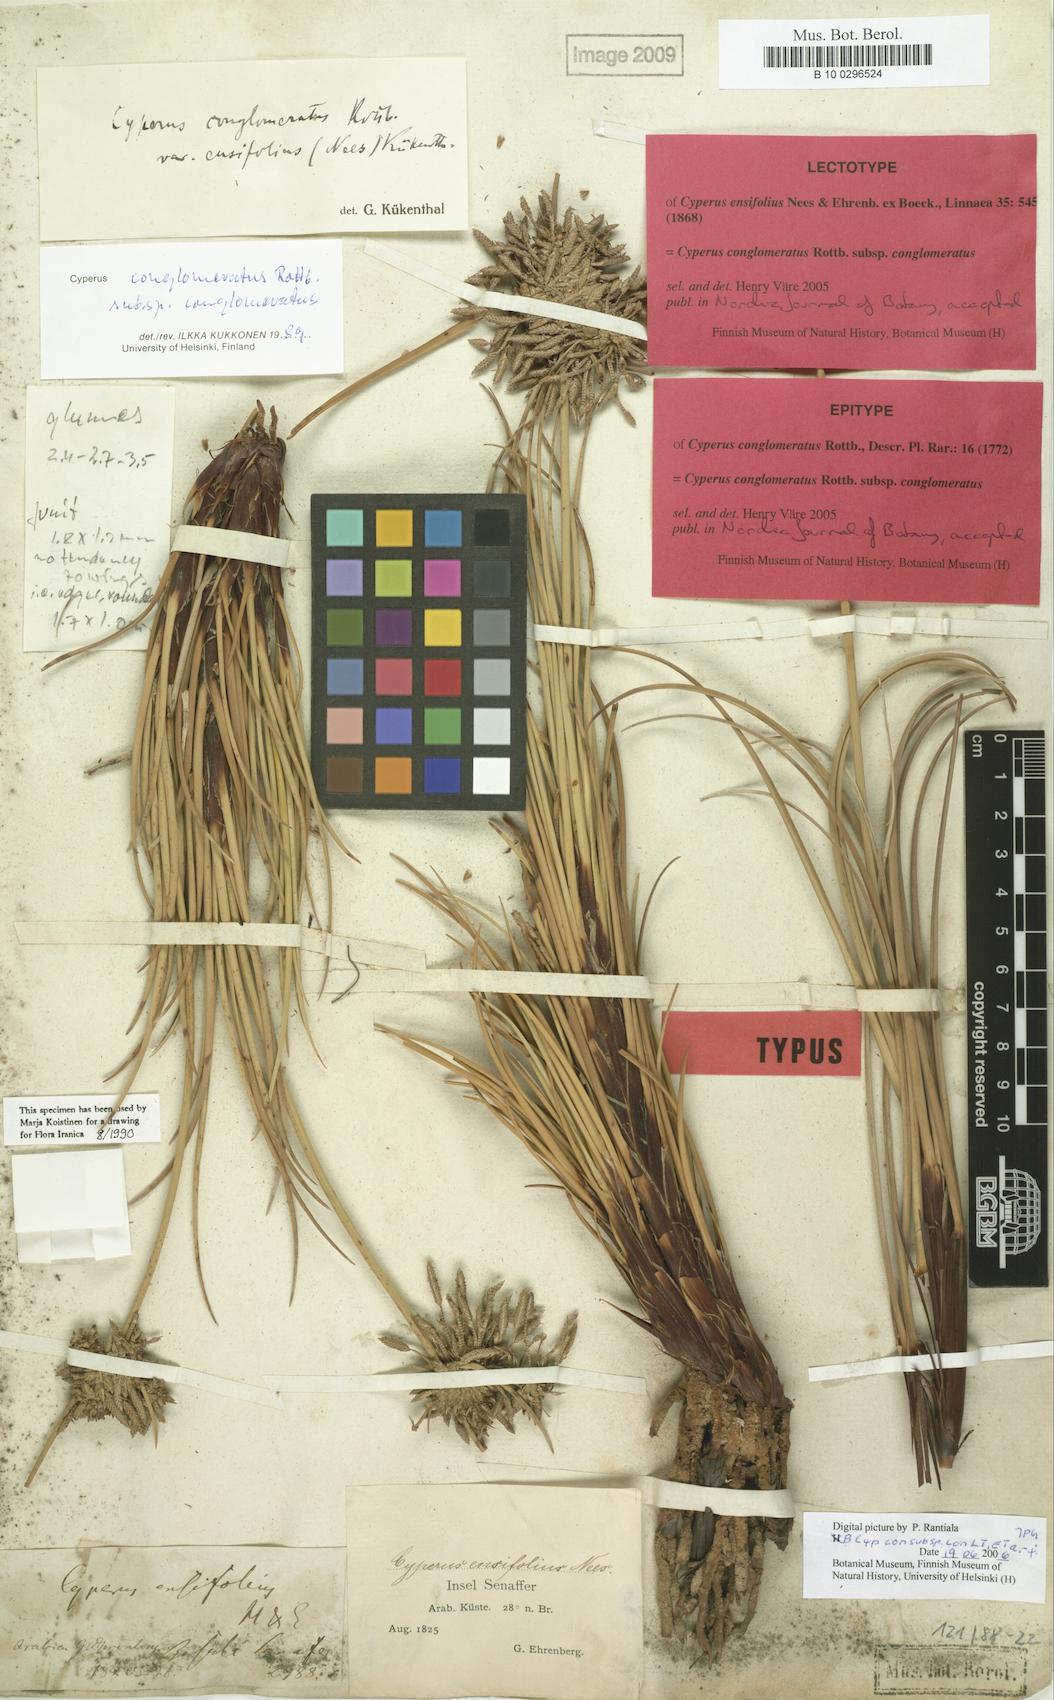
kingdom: Plantae
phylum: Tracheophyta
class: Liliopsida
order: Poales
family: Cyperaceae
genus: Cyperus
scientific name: Cyperus conglomeratus
